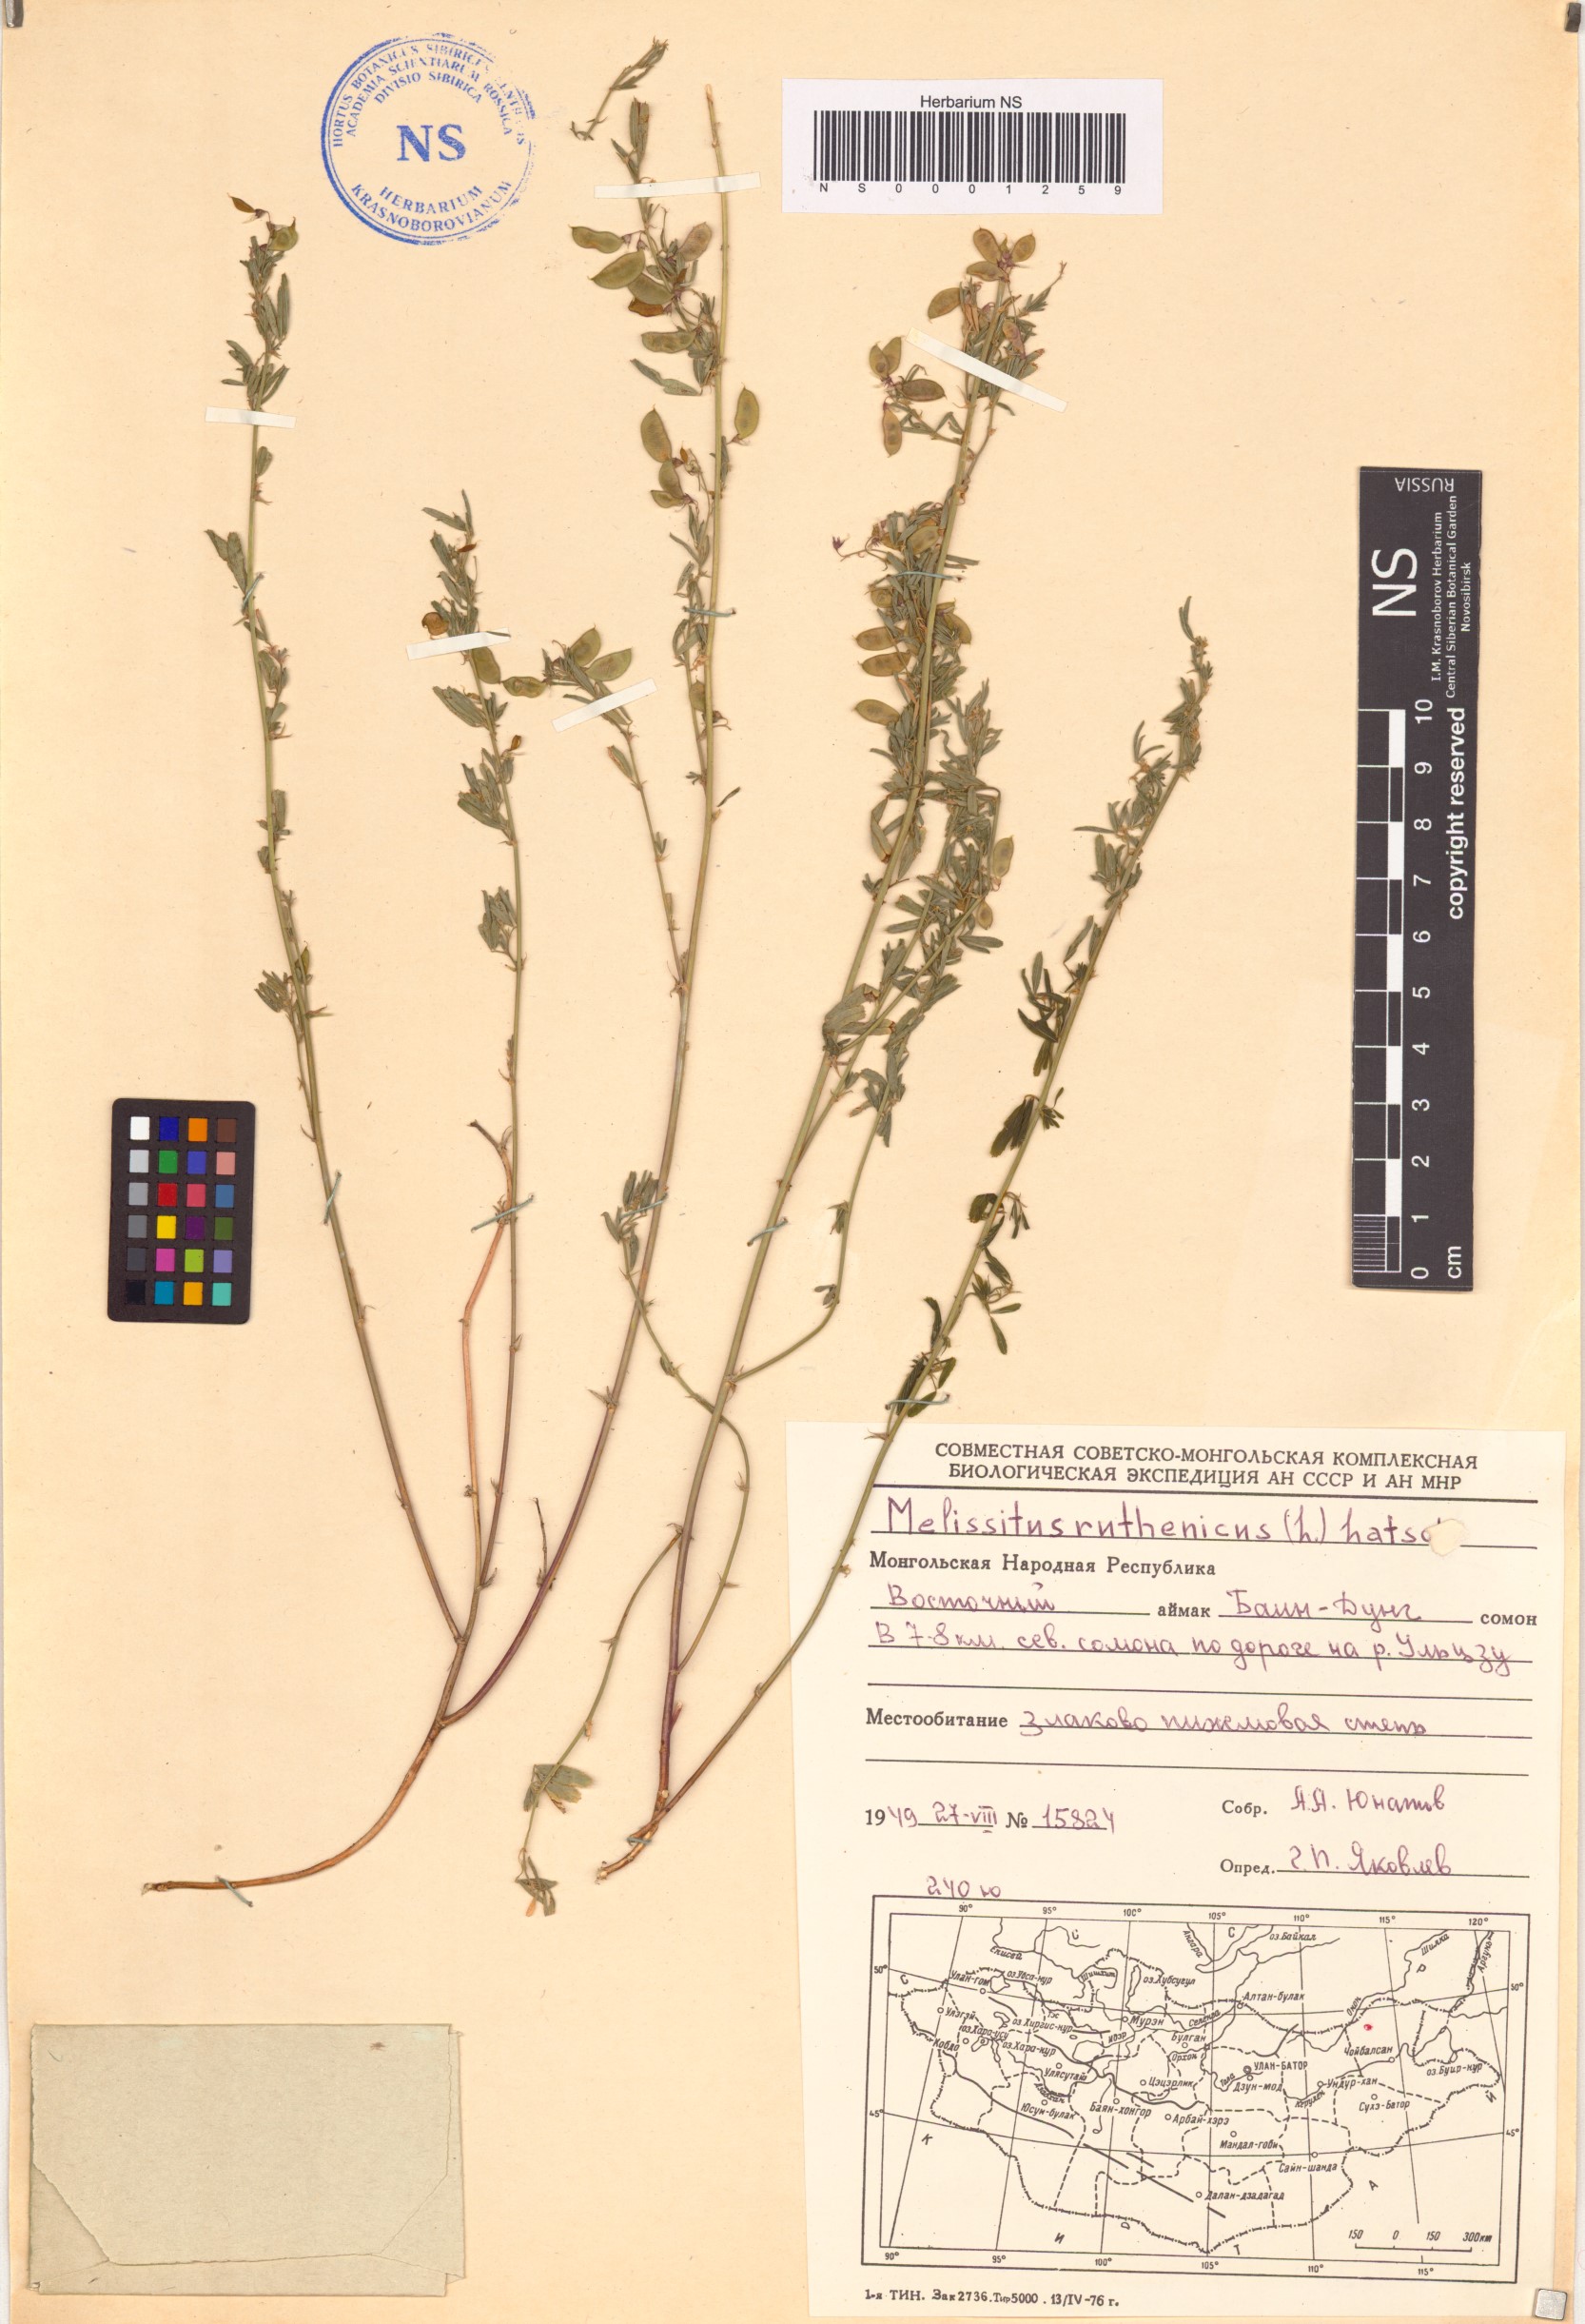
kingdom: Plantae
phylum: Tracheophyta
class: Magnoliopsida
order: Fabales
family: Fabaceae
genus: Medicago
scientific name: Medicago ruthenica
